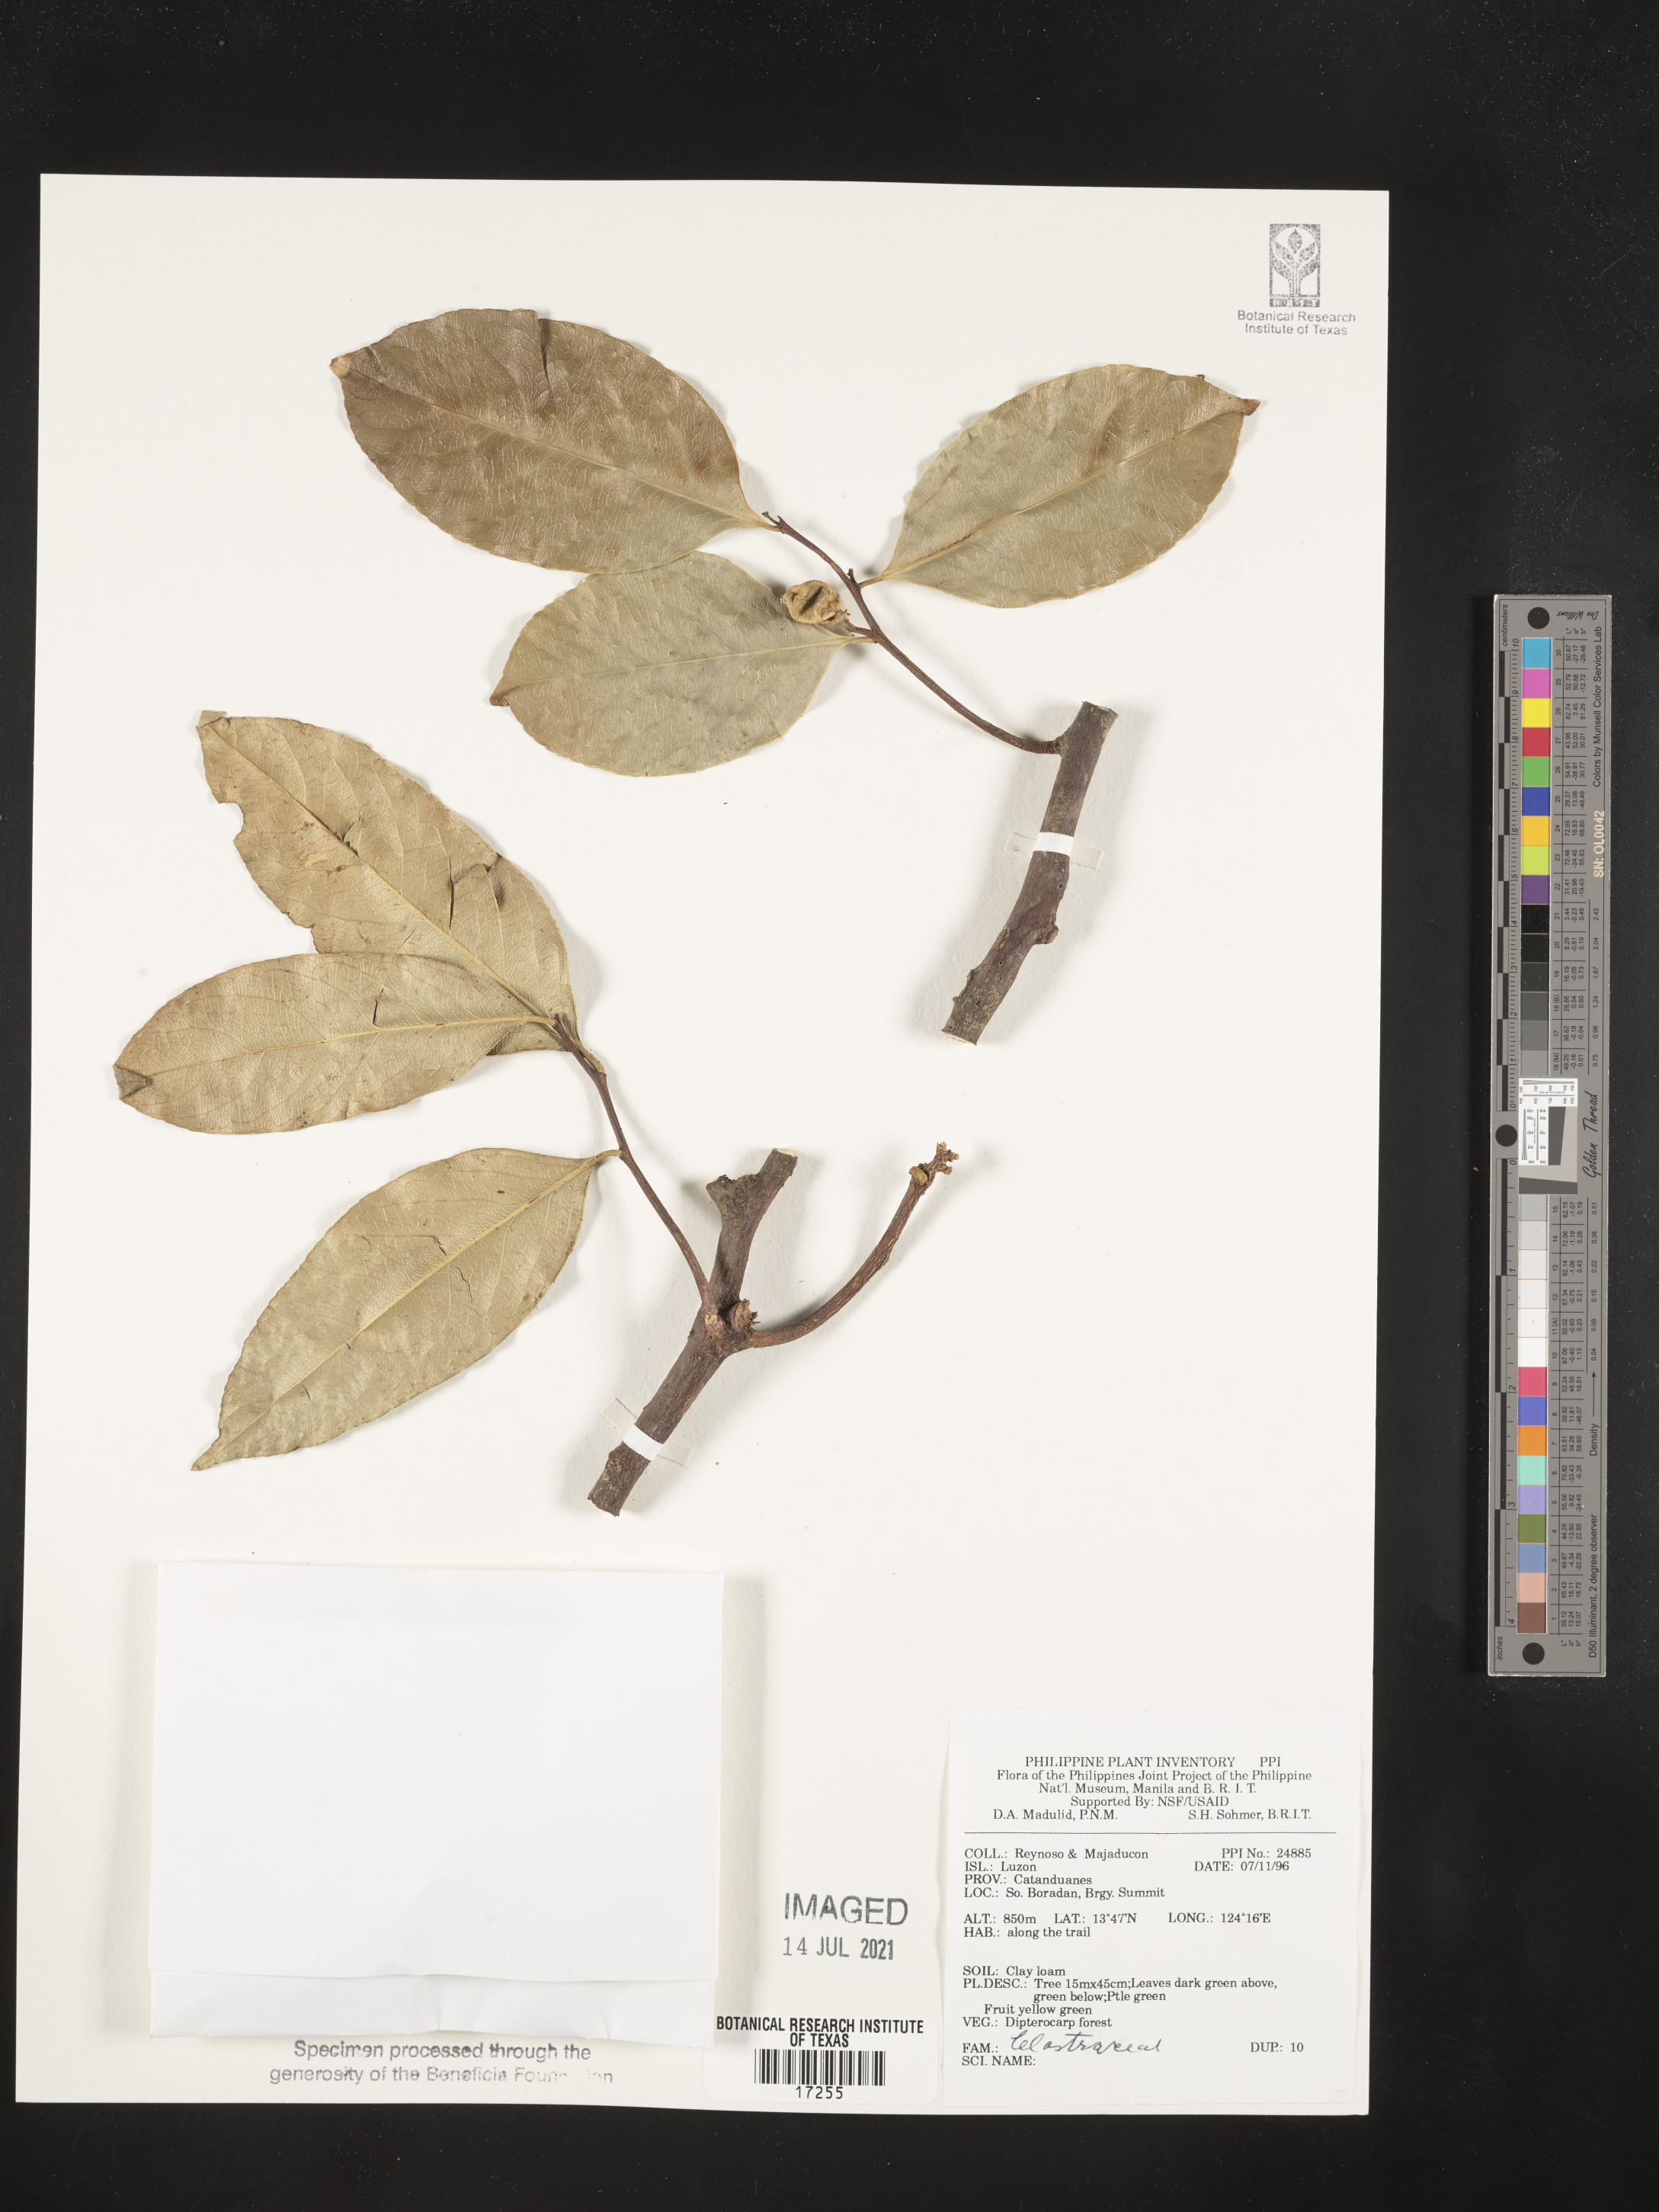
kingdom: Plantae
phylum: Tracheophyta
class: Magnoliopsida
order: Celastrales
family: Celastraceae
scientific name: Celastraceae
